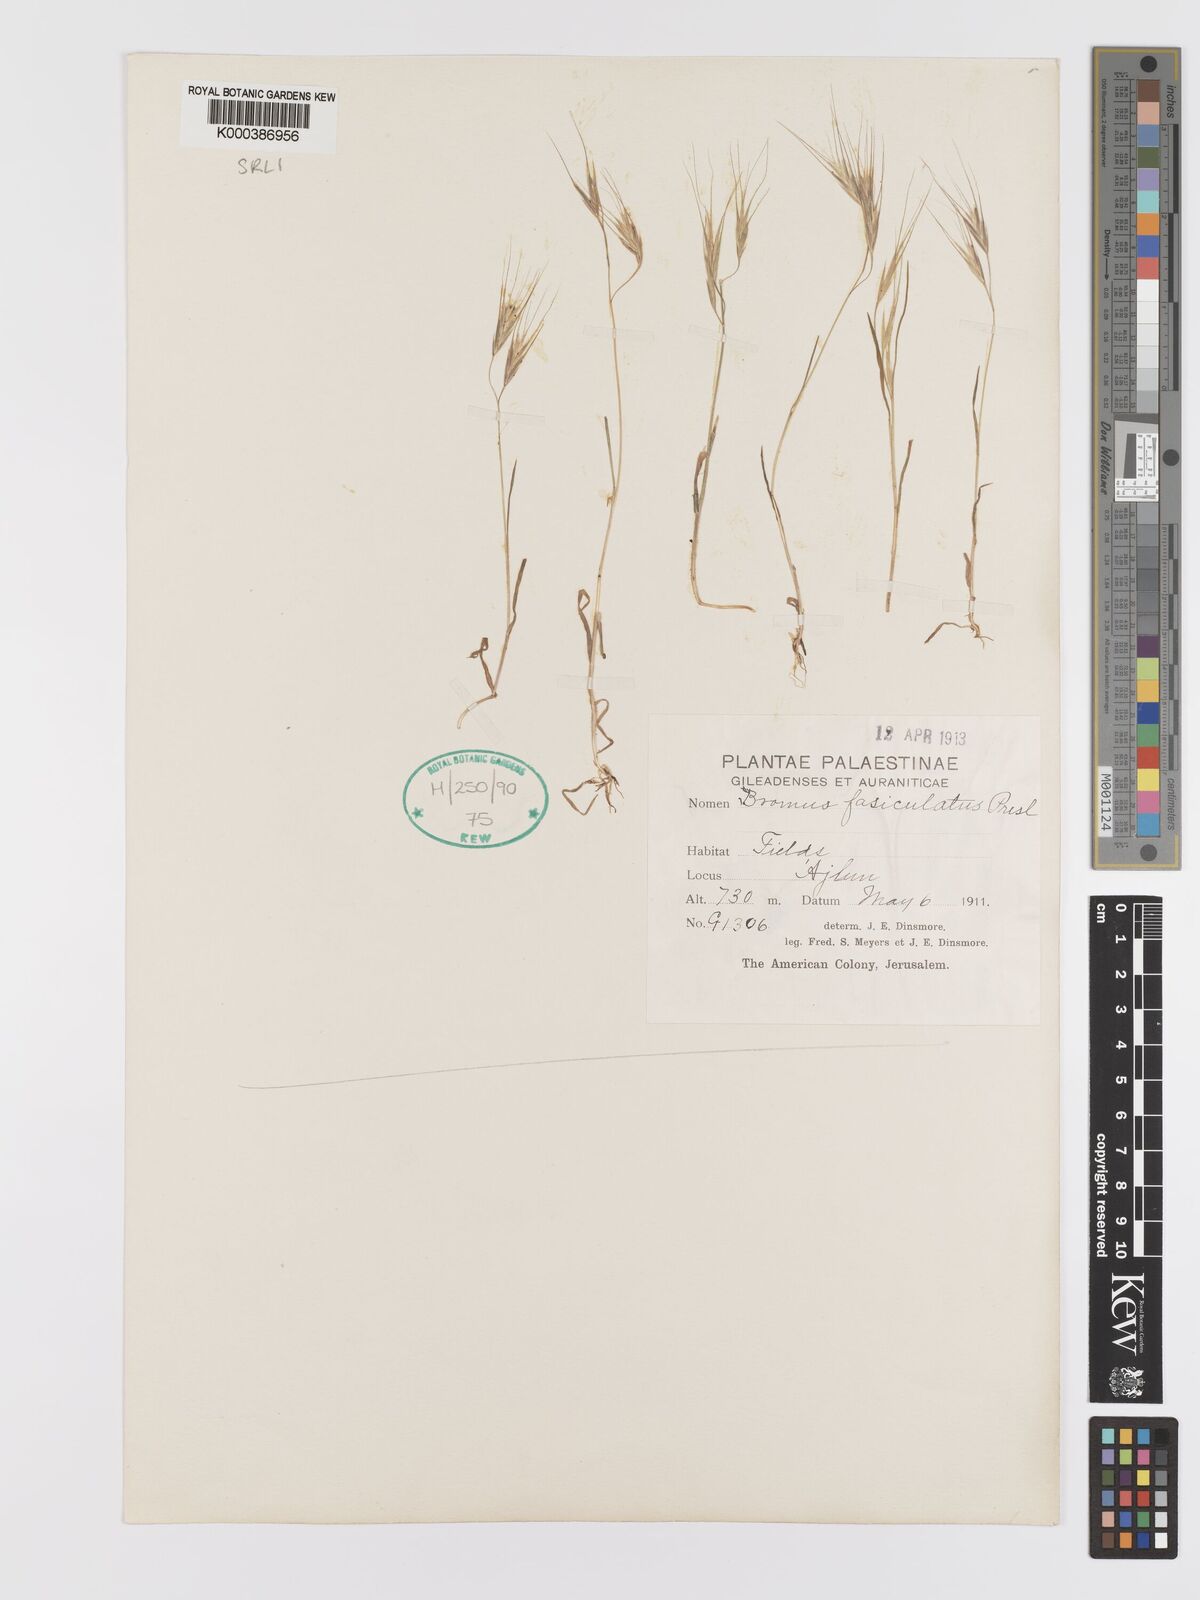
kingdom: Plantae
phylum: Tracheophyta
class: Liliopsida
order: Poales
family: Poaceae
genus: Bromus
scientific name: Bromus fasciculatus
